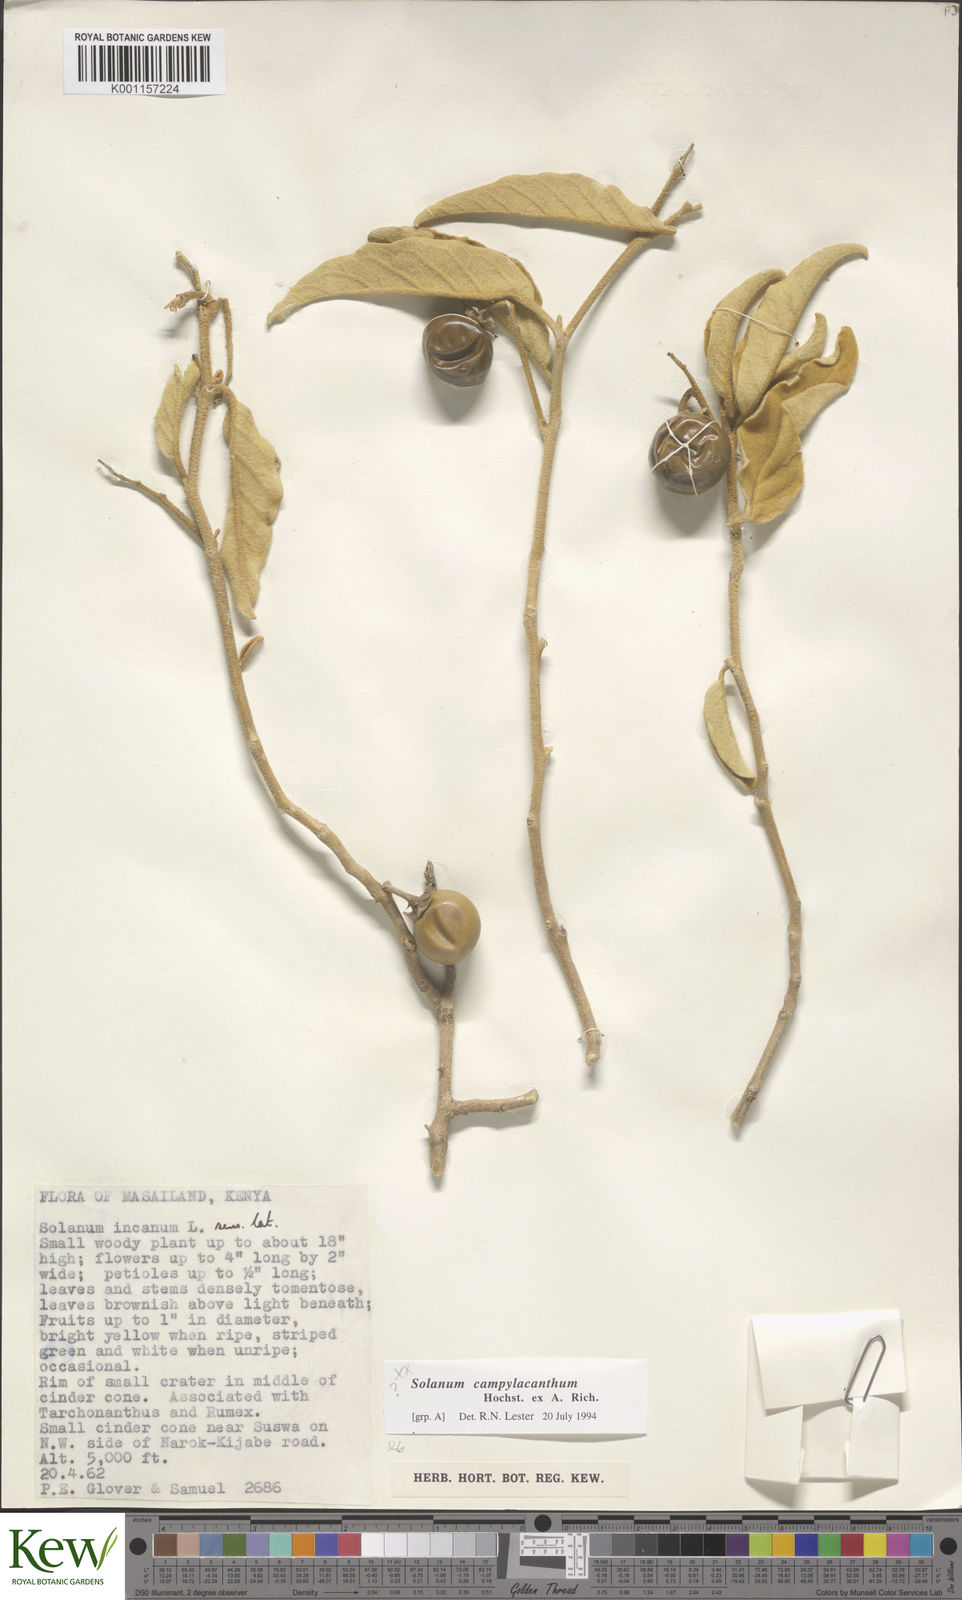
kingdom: Plantae
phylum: Tracheophyta
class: Magnoliopsida
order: Solanales
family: Solanaceae
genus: Solanum
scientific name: Solanum campylacanthum
